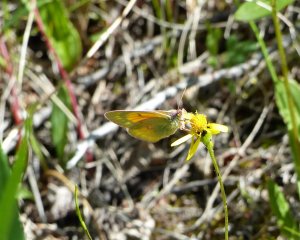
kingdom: Animalia
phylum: Arthropoda
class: Insecta
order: Lepidoptera
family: Pieridae
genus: Colias
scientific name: Colias hecla
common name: Hecla Sulphur
